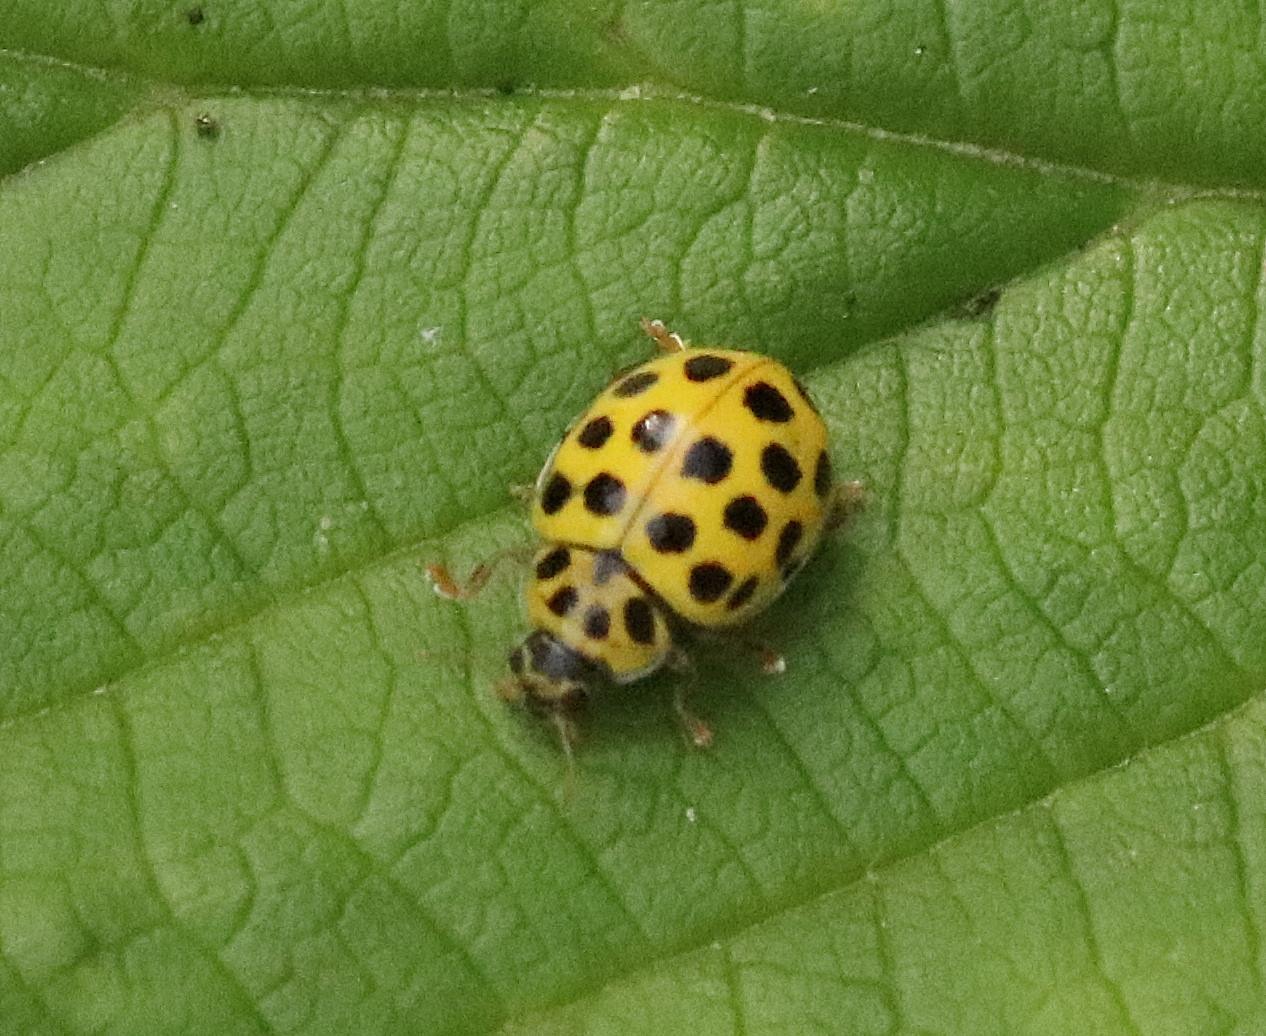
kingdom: Animalia
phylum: Arthropoda
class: Insecta
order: Coleoptera
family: Coccinellidae
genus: Psyllobora
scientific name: Psyllobora vigintiduopunctata
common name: Toogtyveplettet mariehøne
